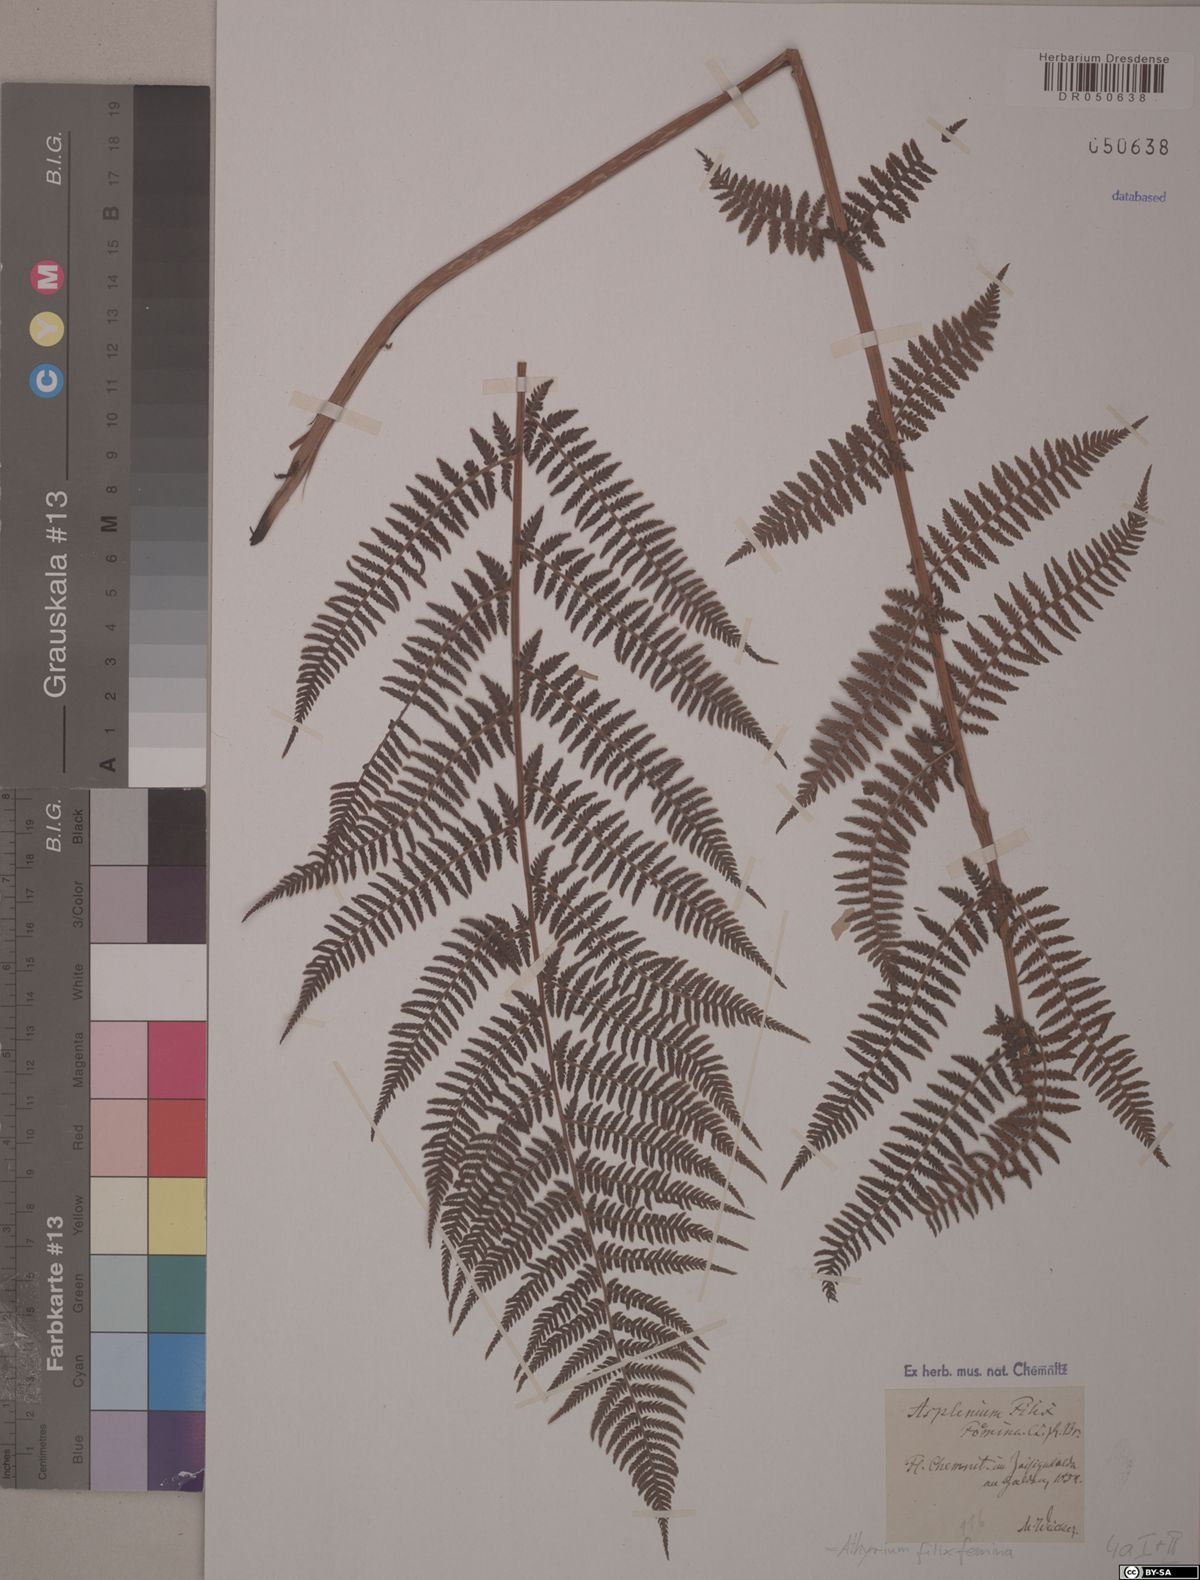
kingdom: Plantae
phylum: Tracheophyta
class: Polypodiopsida
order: Polypodiales
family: Athyriaceae
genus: Athyrium
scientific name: Athyrium filix-femina
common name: Lady fern
